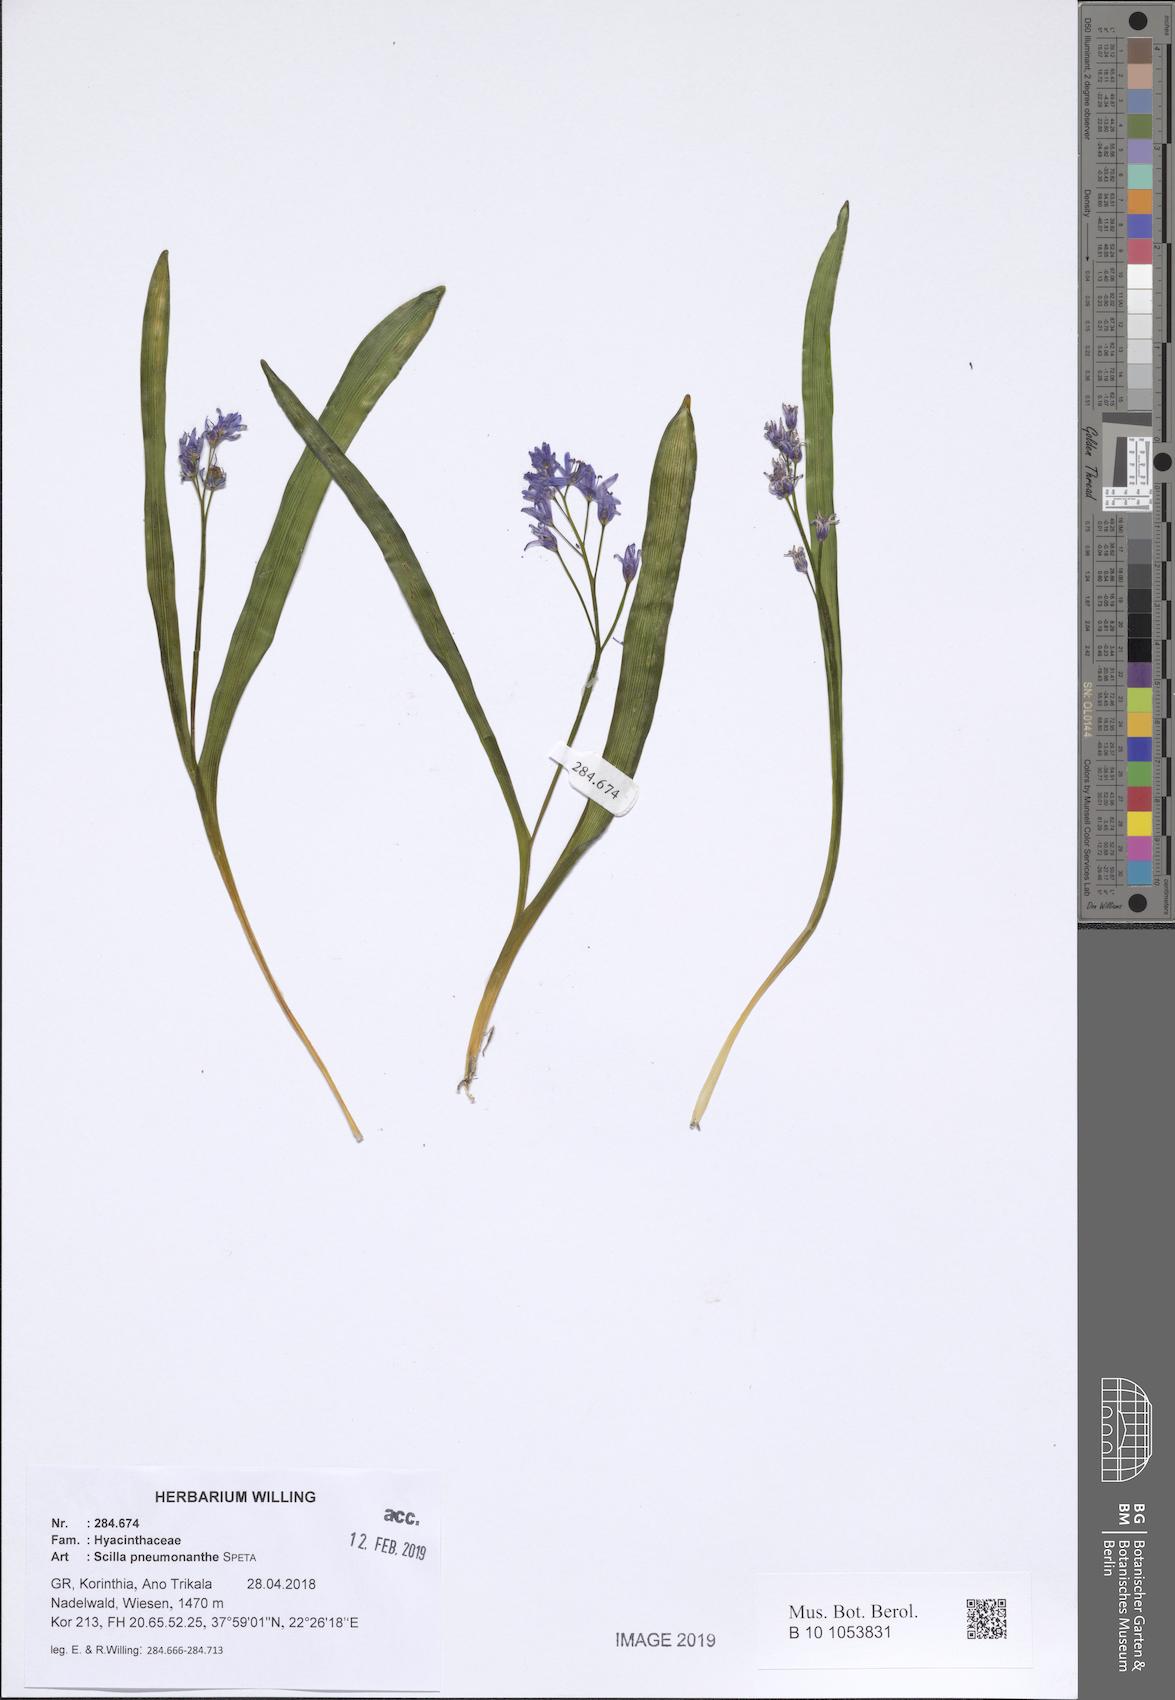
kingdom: Plantae
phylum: Tracheophyta
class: Liliopsida
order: Asparagales
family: Asparagaceae
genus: Scilla
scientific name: Scilla pneumonanthe
